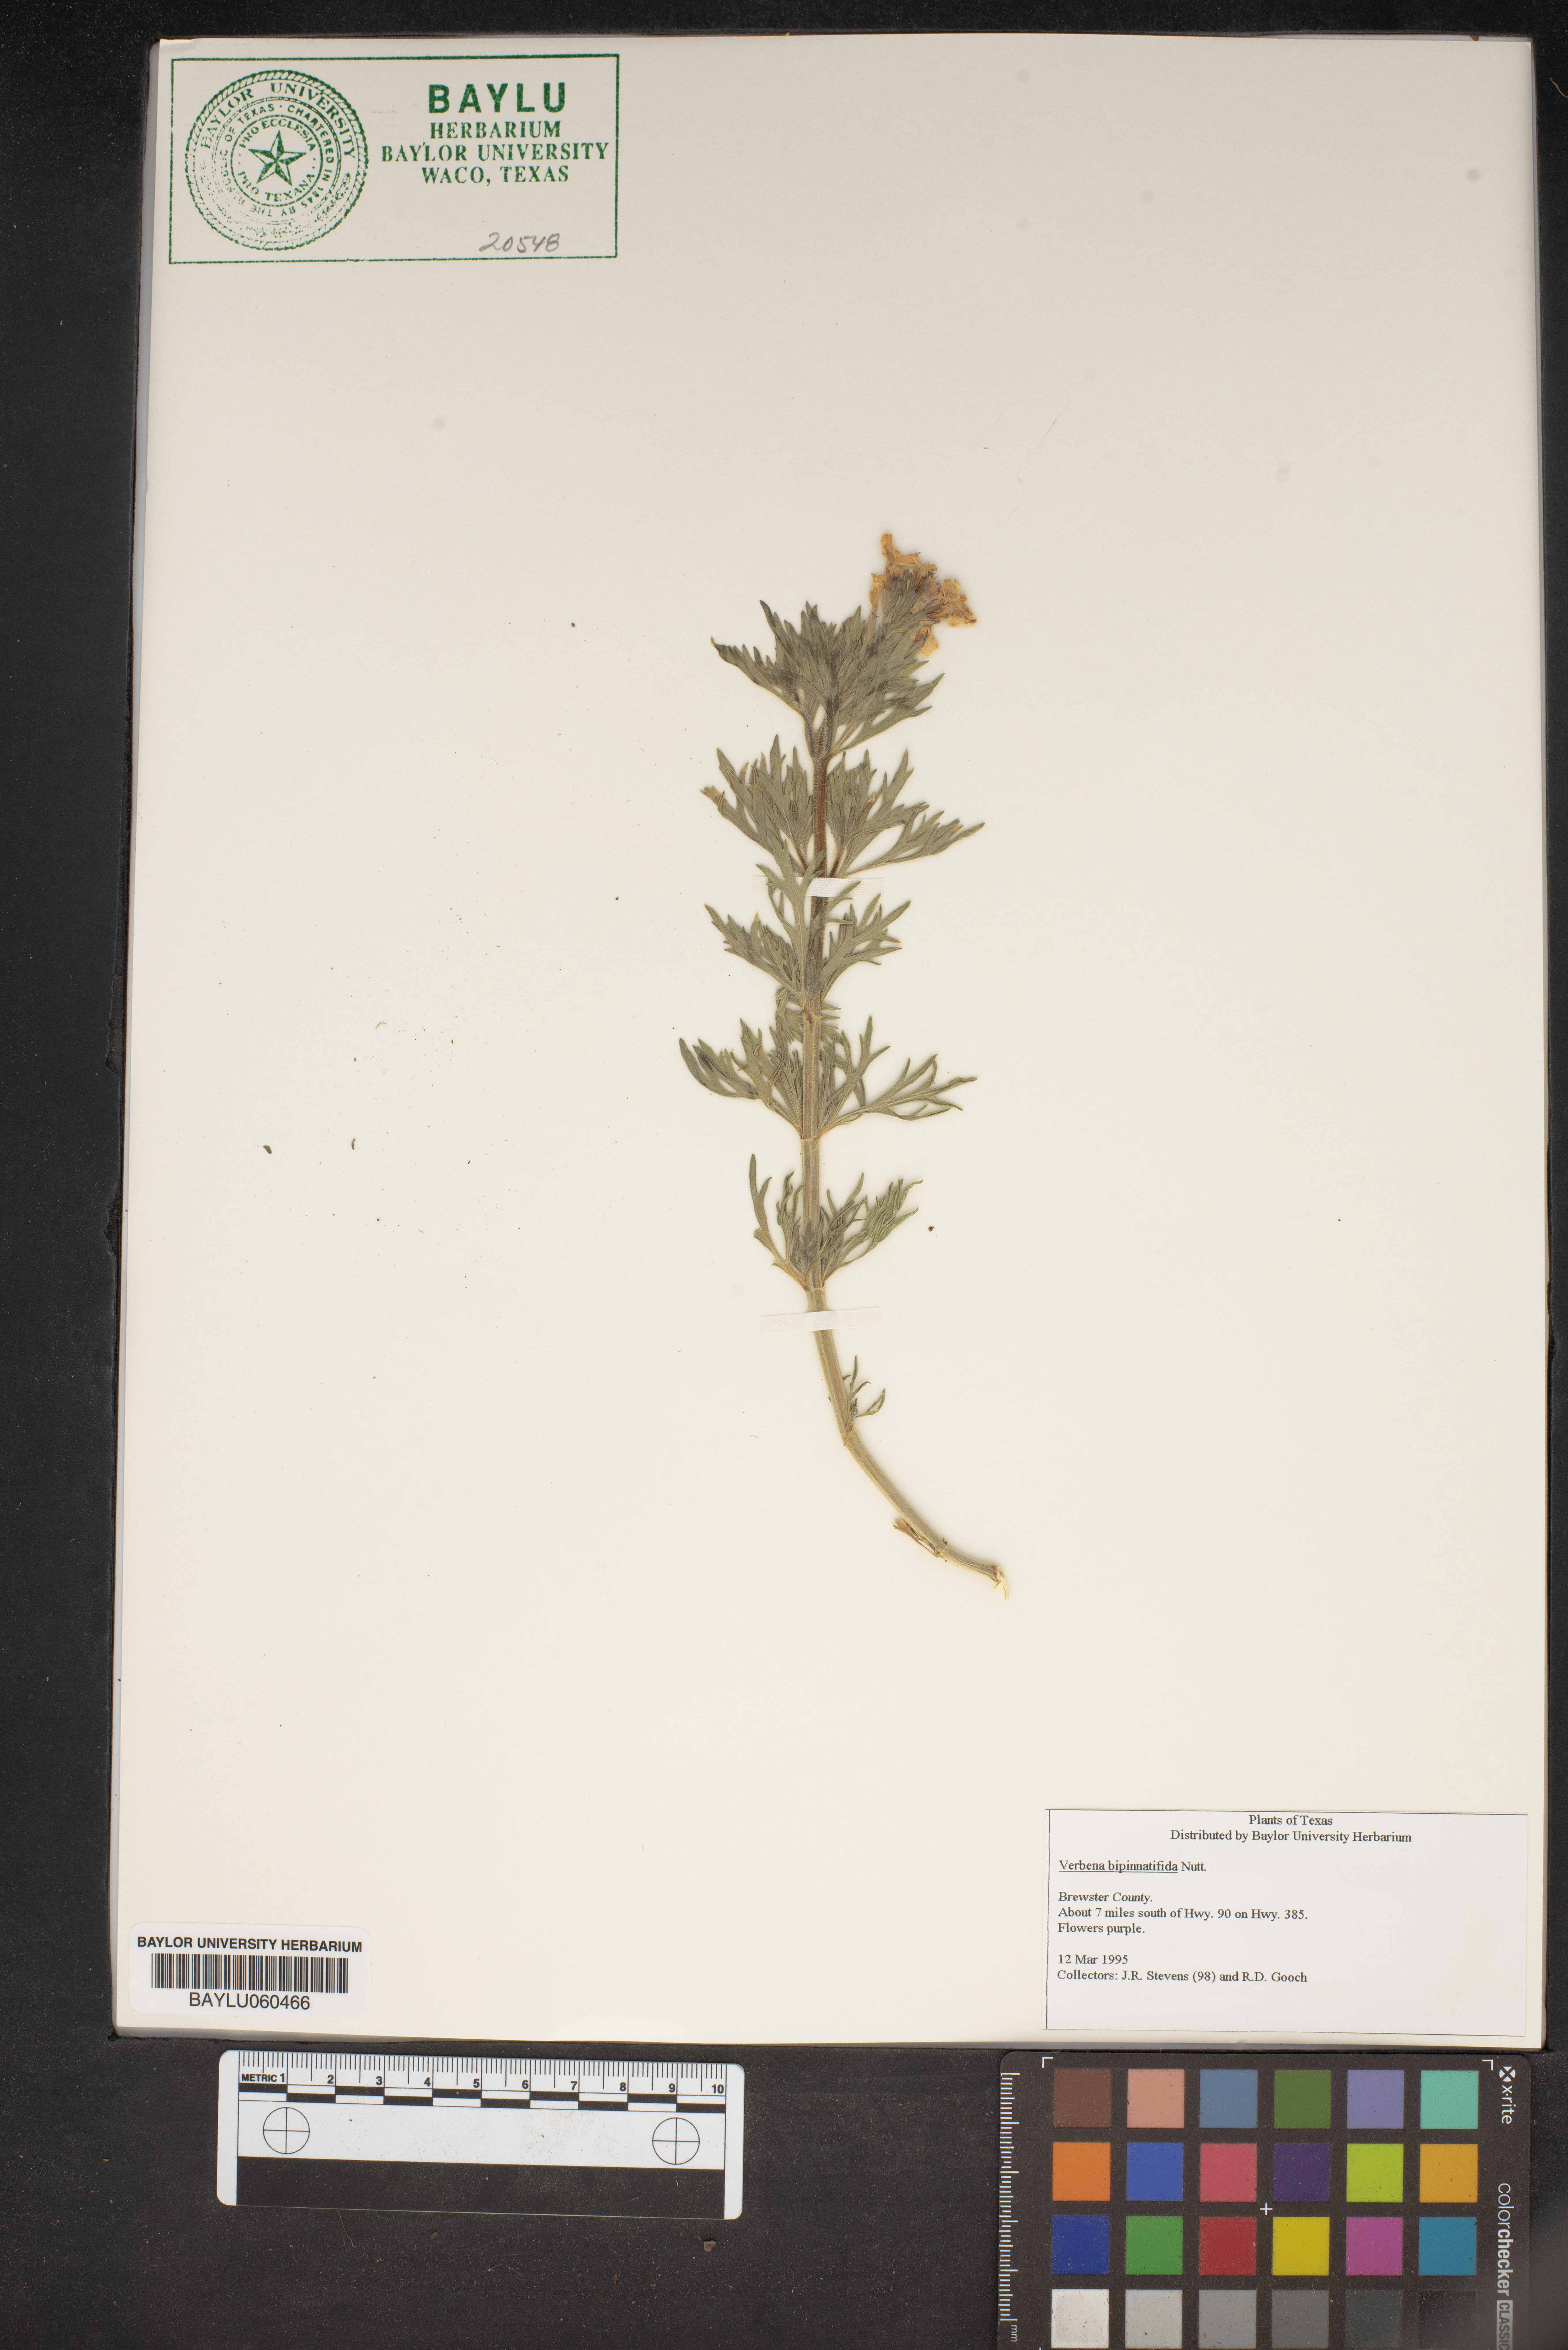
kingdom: Plantae
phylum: Tracheophyta
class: Magnoliopsida
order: Lamiales
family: Verbenaceae
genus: Verbena
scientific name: Verbena bipinnatifida
